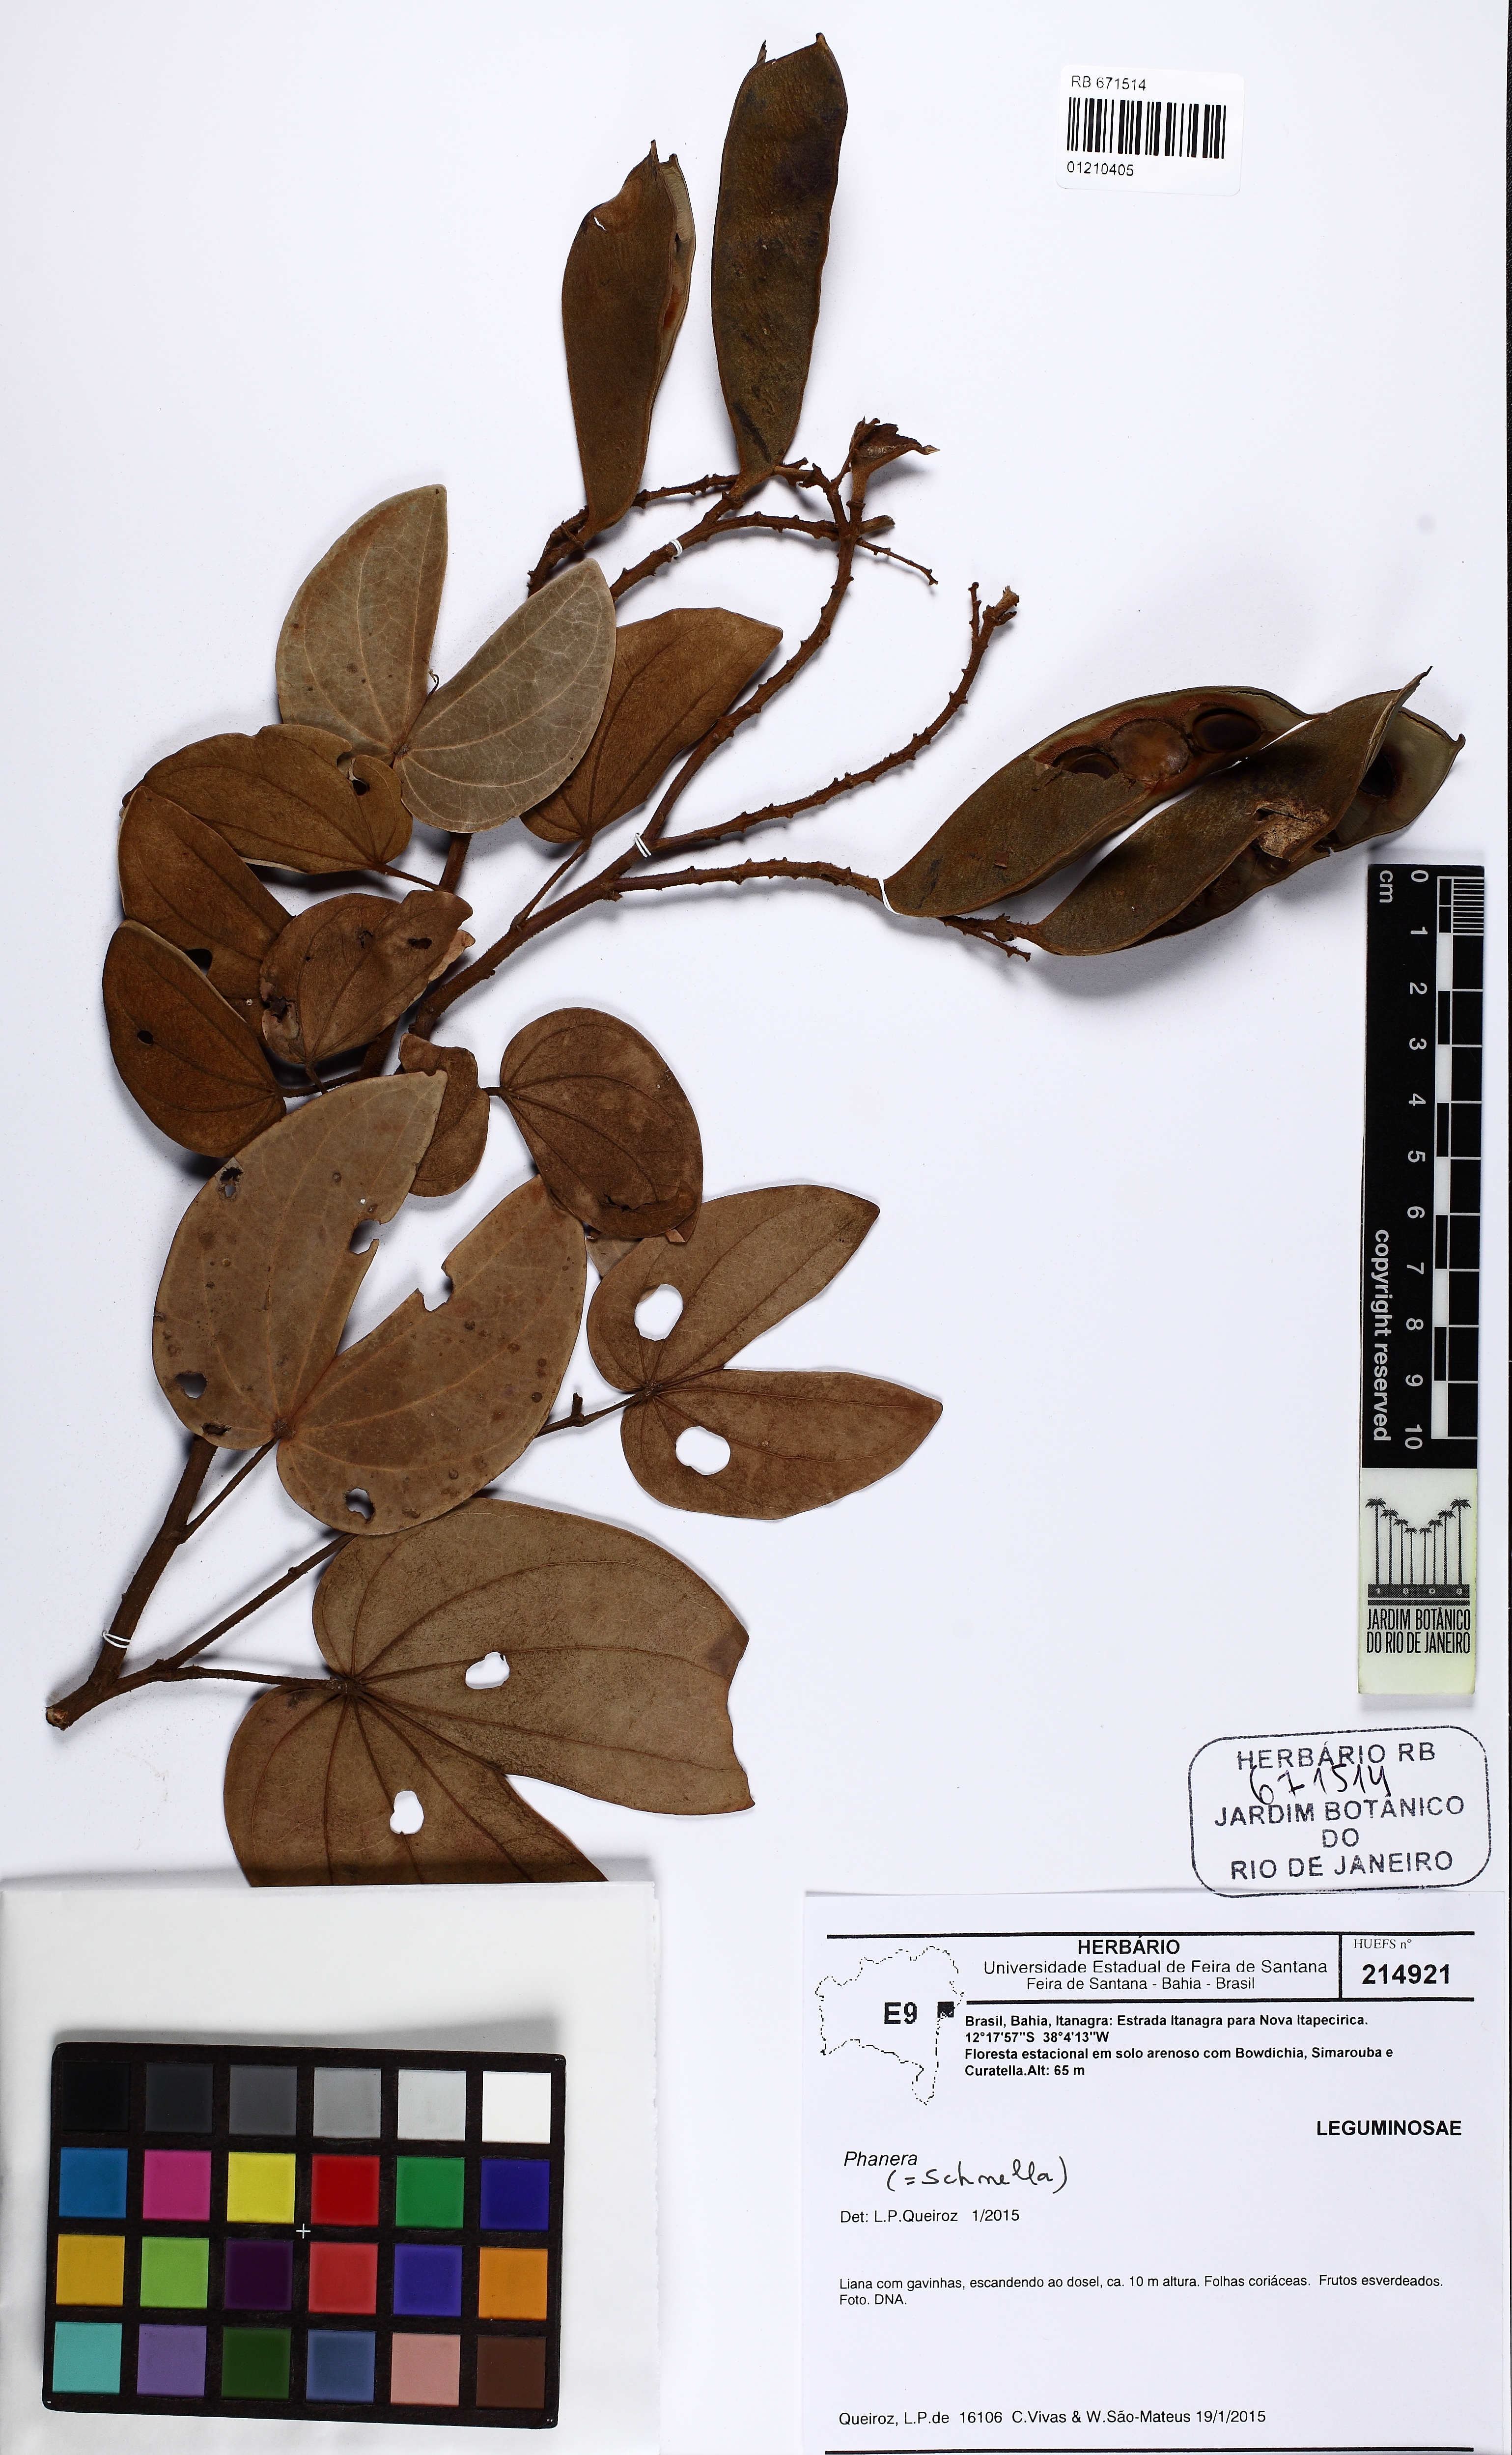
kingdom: Plantae
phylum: Tracheophyta
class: Magnoliopsida
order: Fabales
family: Fabaceae
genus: Schnella
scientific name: Schnella outimouta
